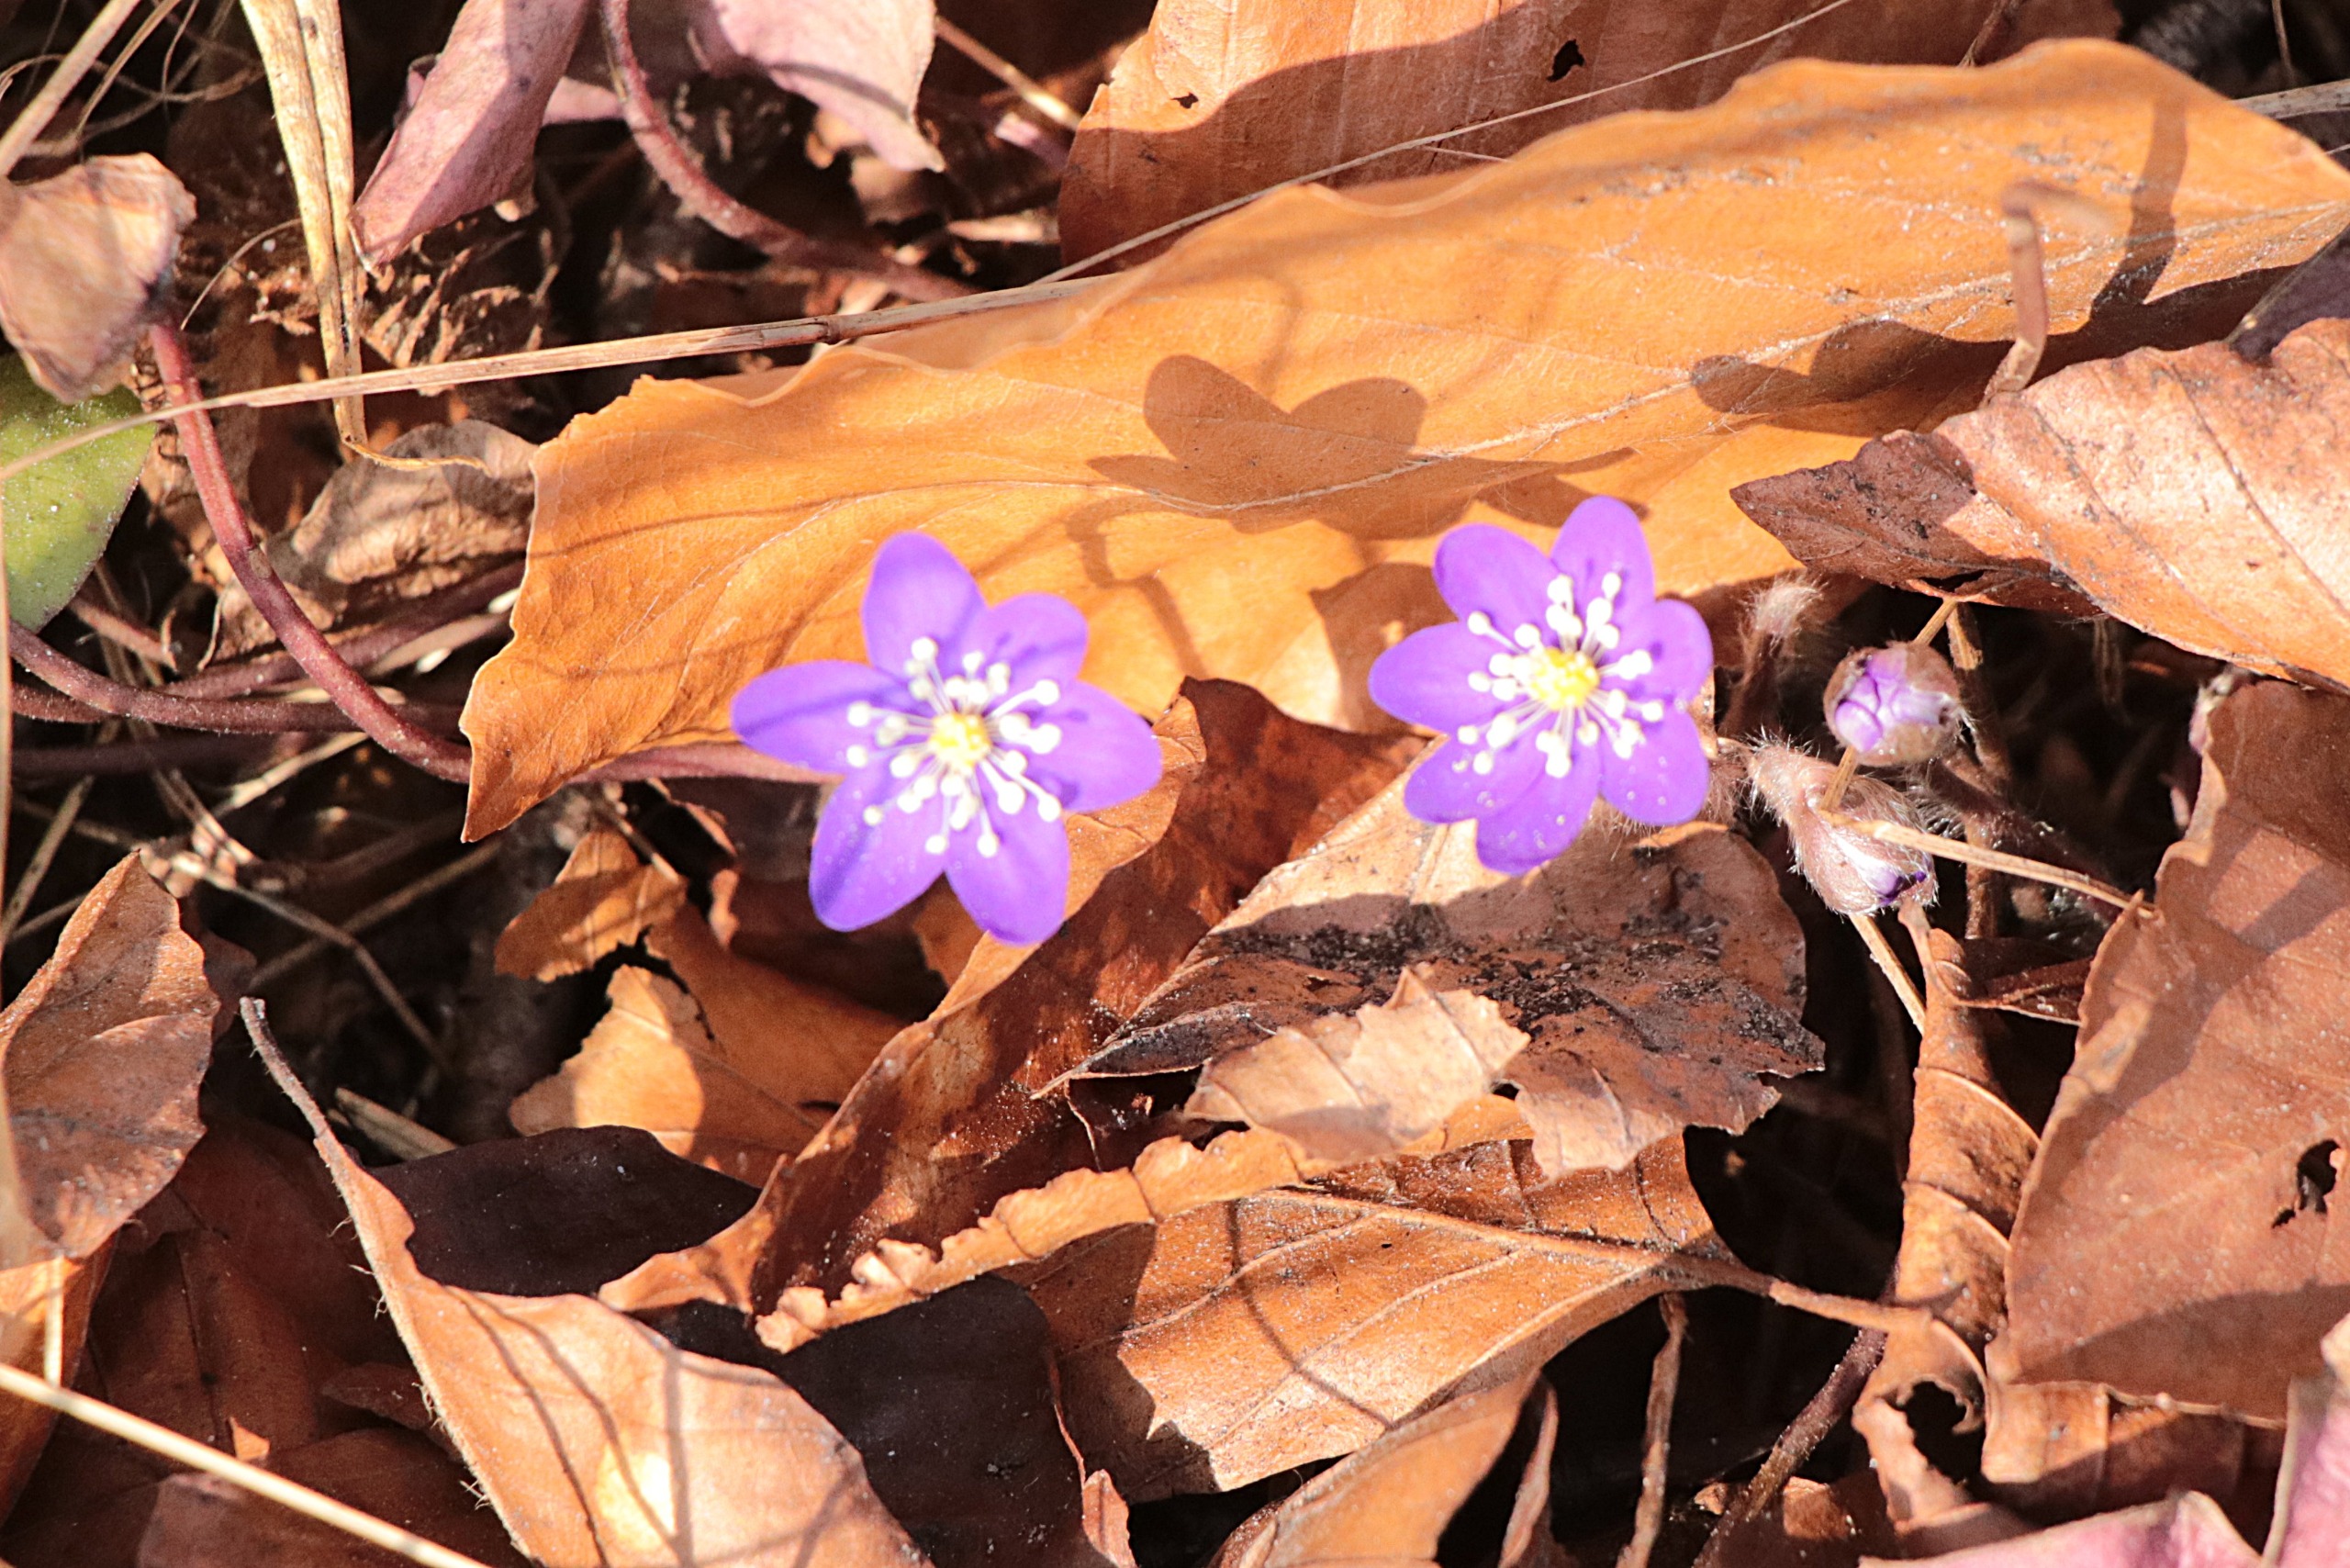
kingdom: Plantae
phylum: Tracheophyta
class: Magnoliopsida
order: Ranunculales
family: Ranunculaceae
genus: Hepatica
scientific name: Hepatica nobilis
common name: Blå anemone
